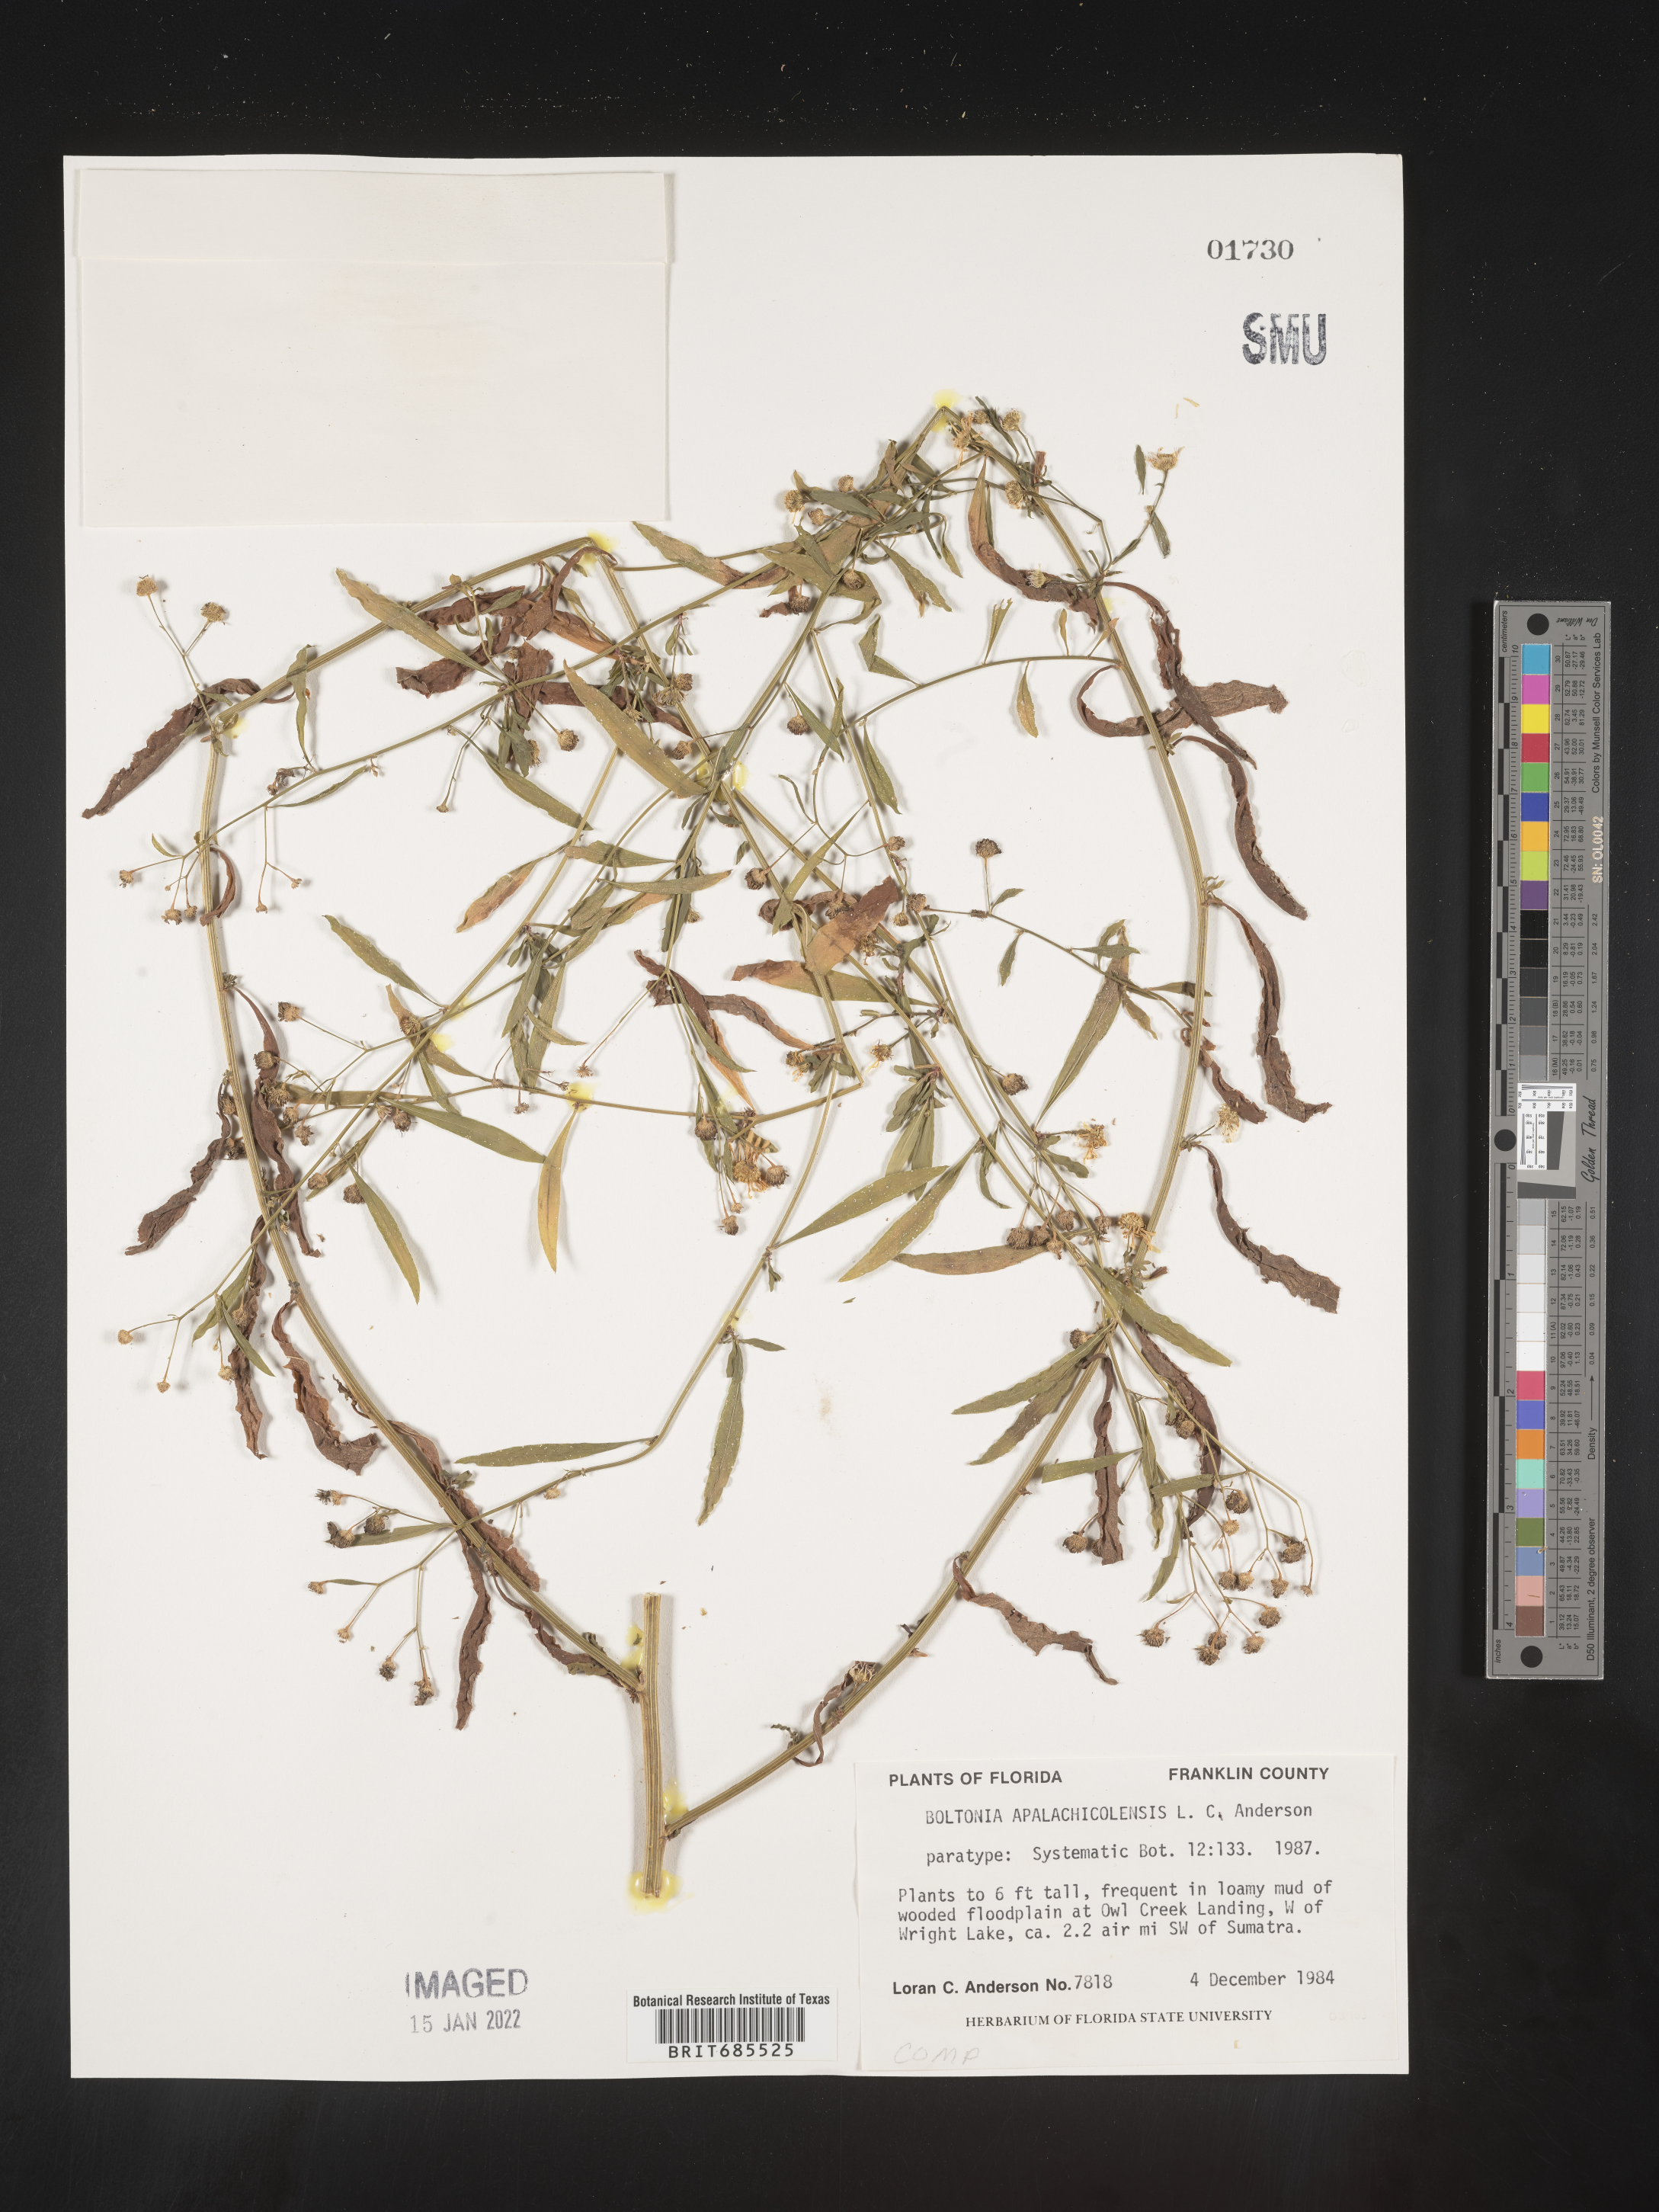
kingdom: Plantae
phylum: Tracheophyta
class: Magnoliopsida
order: Asterales
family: Asteraceae
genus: Boltonia
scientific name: Boltonia asteroides
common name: False chamomile
